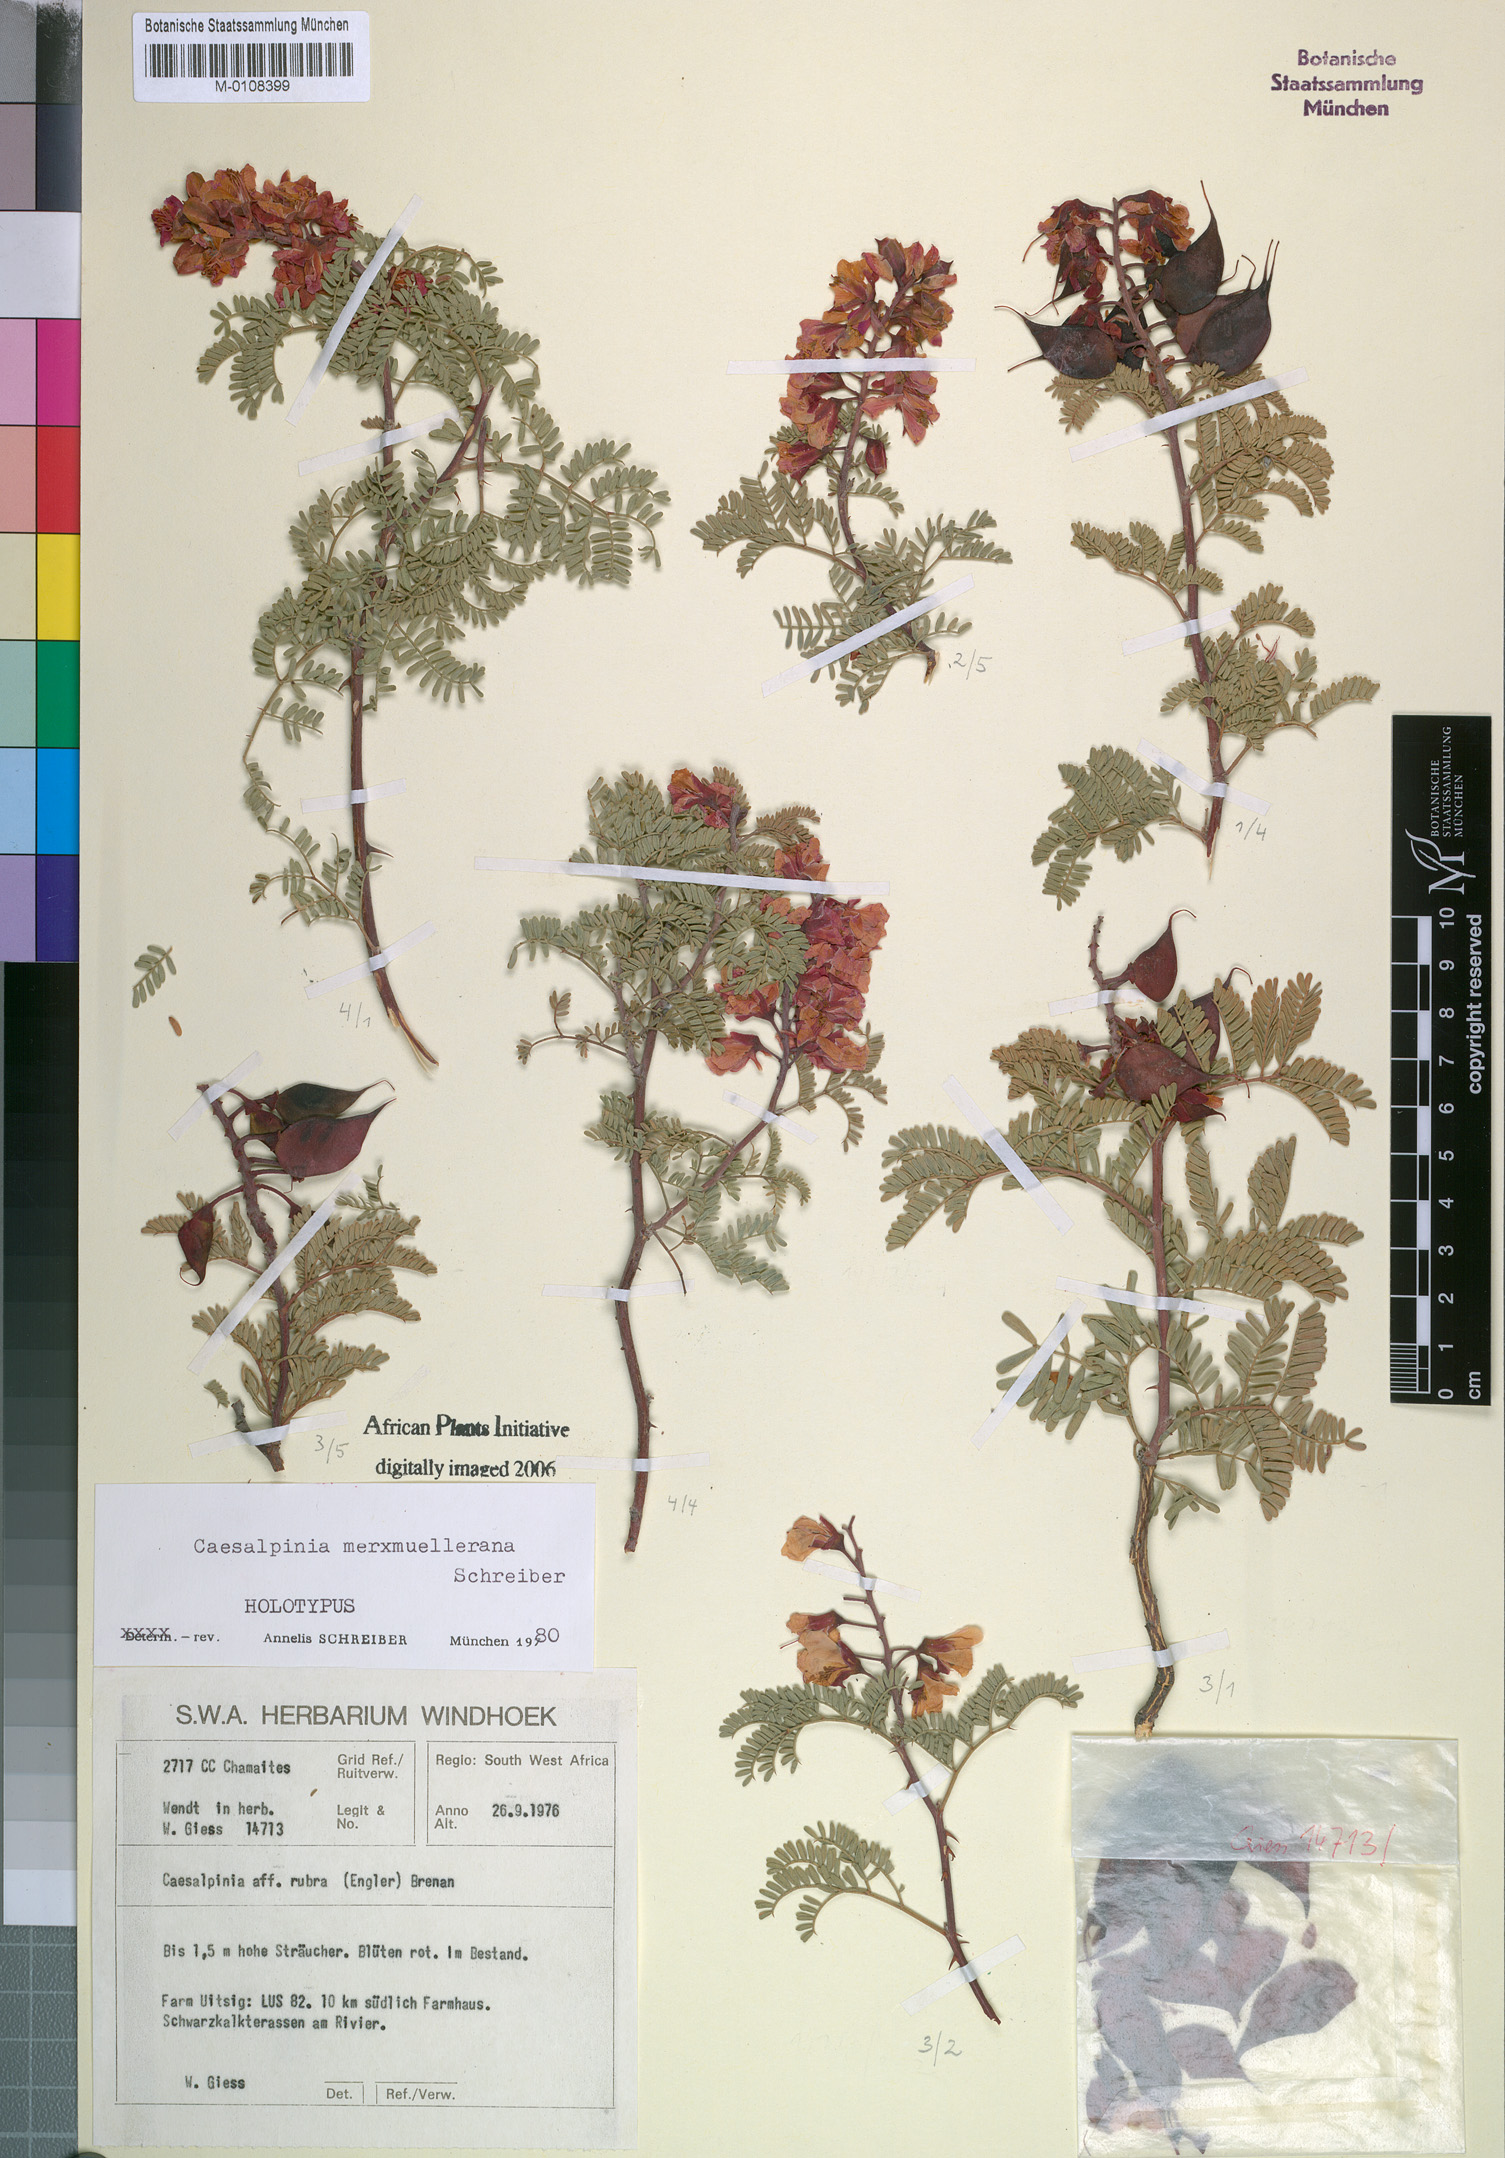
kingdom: Plantae
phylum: Tracheophyta
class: Magnoliopsida
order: Fabales
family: Fabaceae
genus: Gelrebia
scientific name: Gelrebia merxmuellerana
